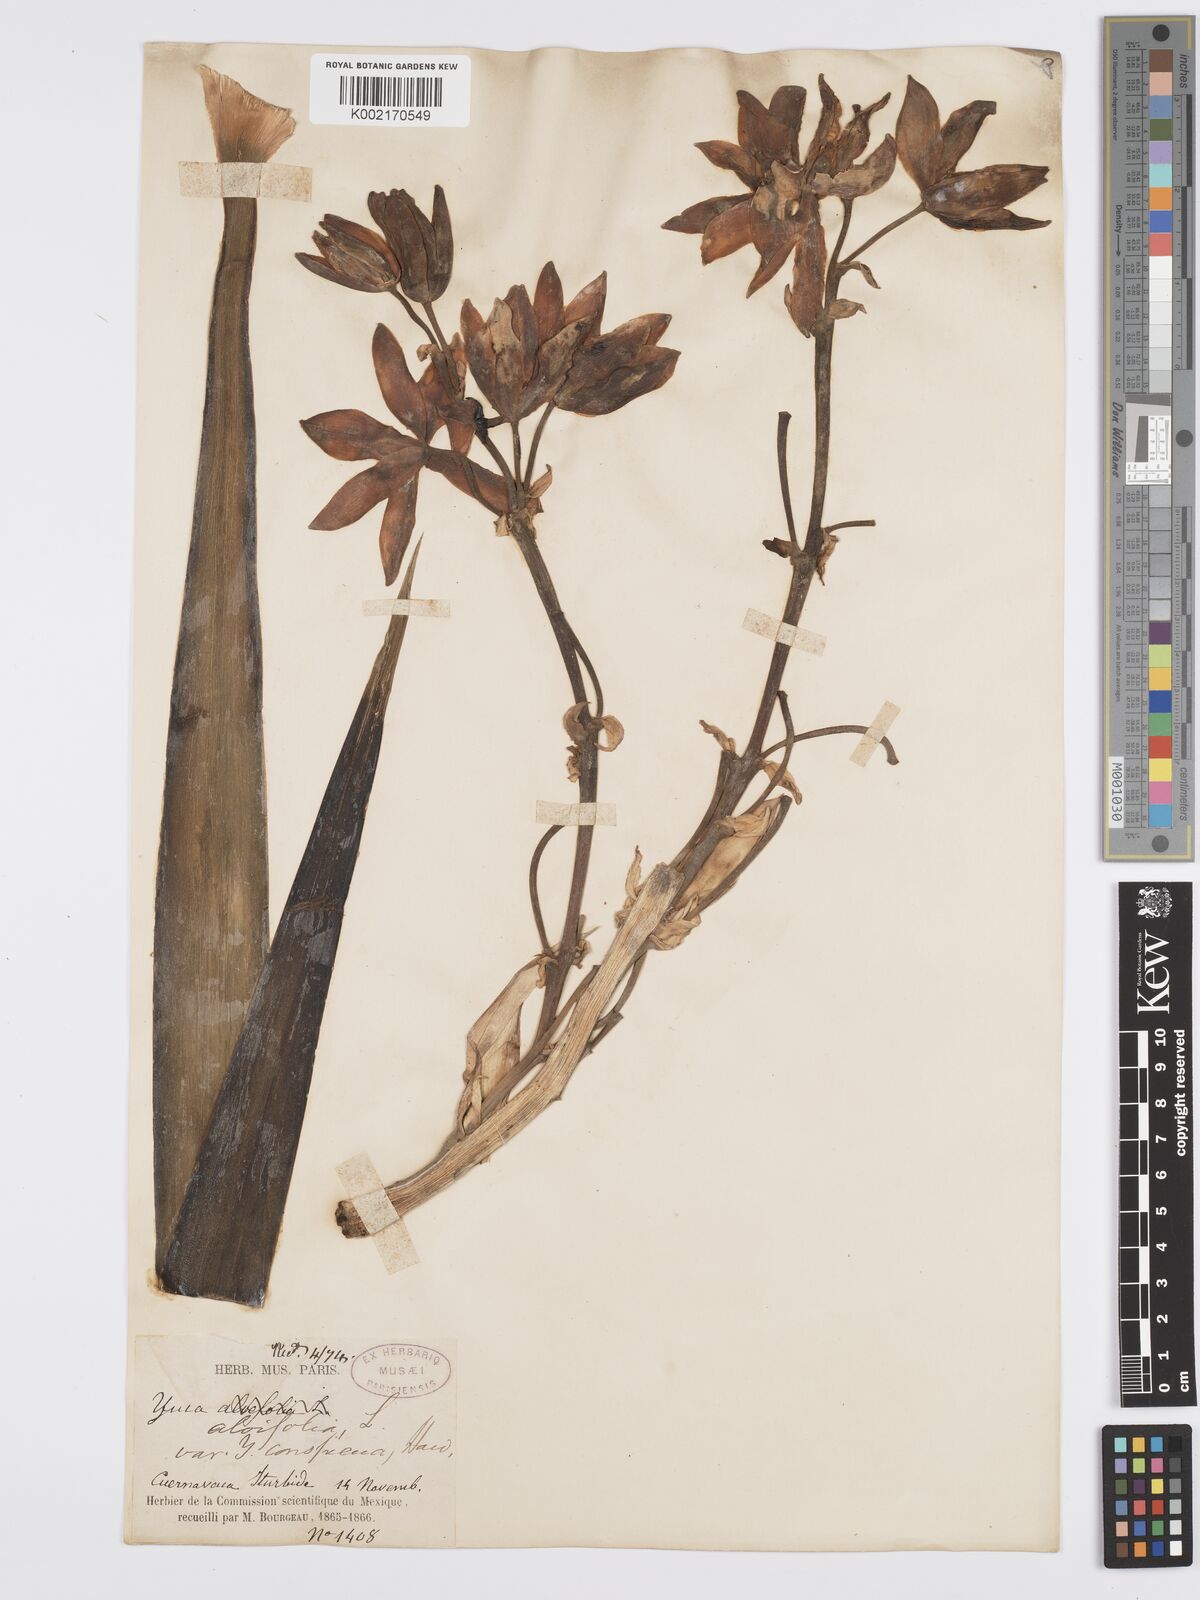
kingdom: Plantae
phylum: Tracheophyta
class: Liliopsida
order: Asparagales
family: Asparagaceae
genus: Yucca
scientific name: Yucca aloifolia
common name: Aloe yucca
